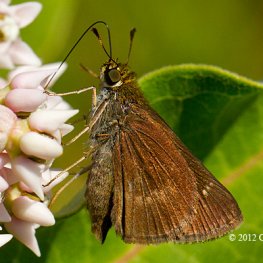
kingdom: Animalia
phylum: Arthropoda
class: Insecta
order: Lepidoptera
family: Hesperiidae
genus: Euphyes
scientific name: Euphyes vestris
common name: Dun Skipper
